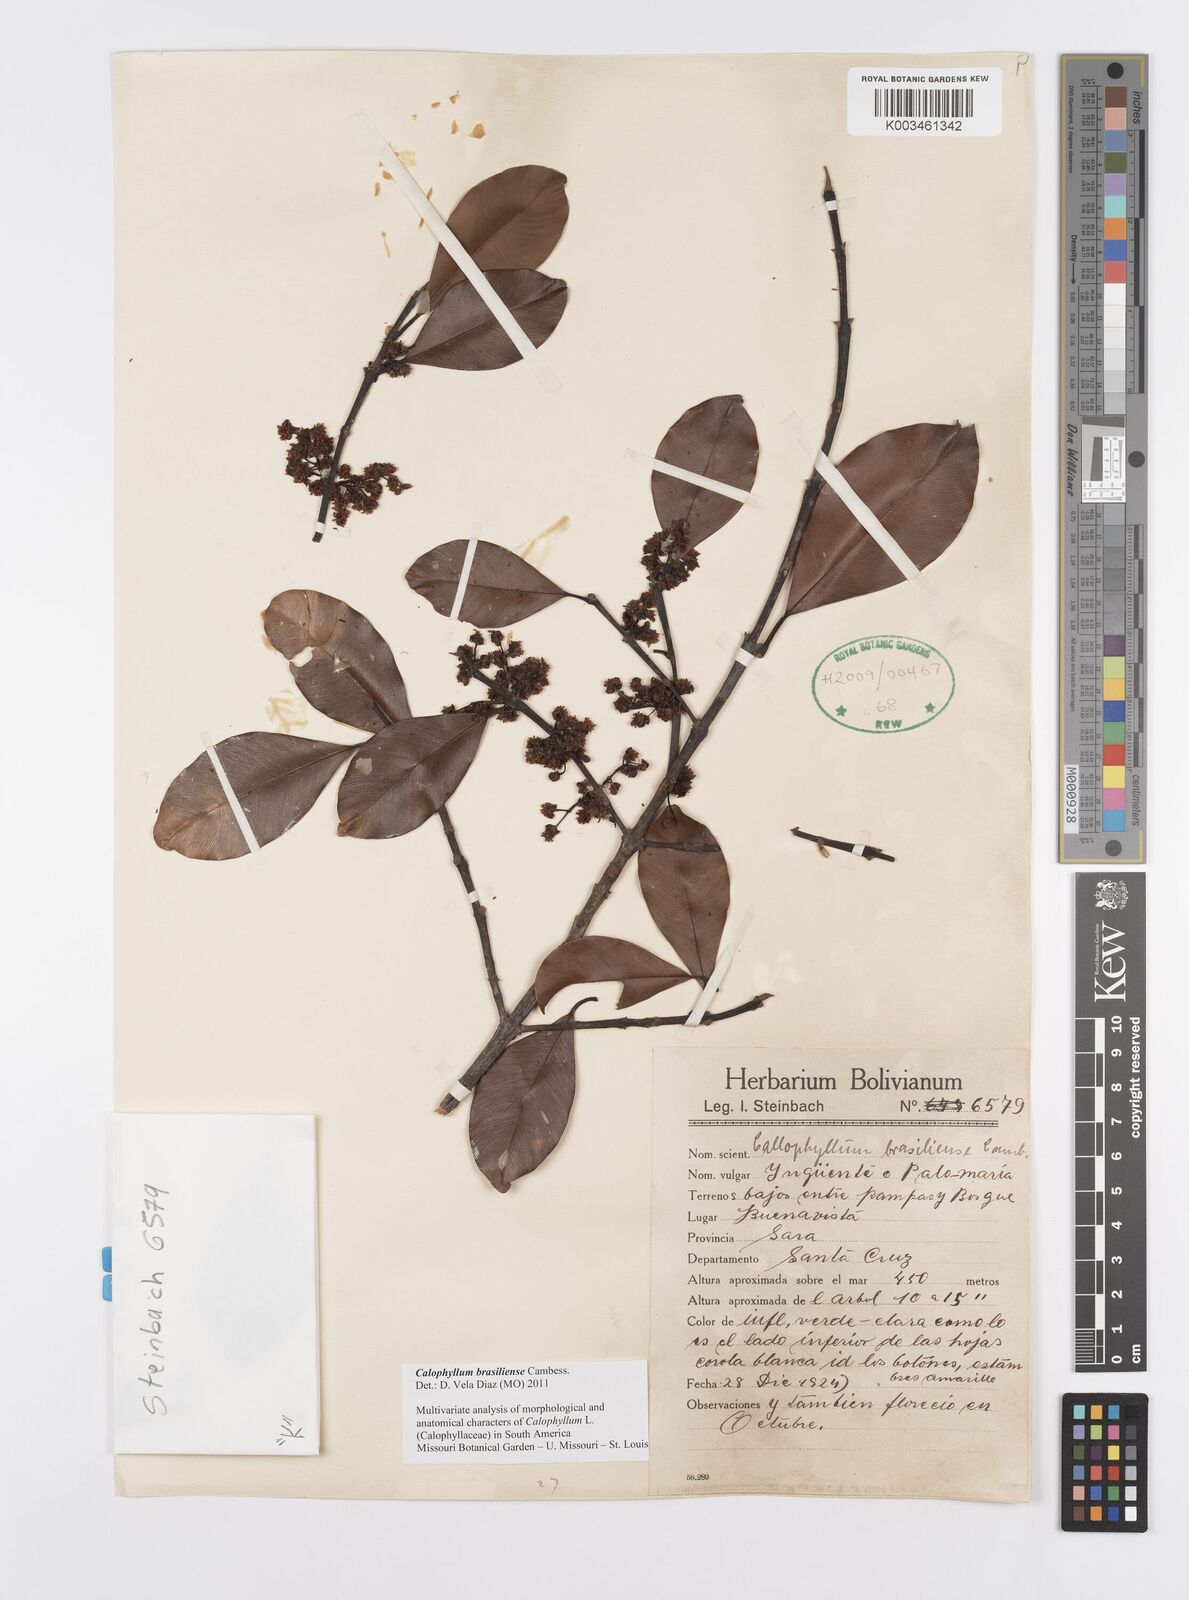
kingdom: Plantae
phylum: Tracheophyta
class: Magnoliopsida
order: Malpighiales
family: Calophyllaceae
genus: Calophyllum
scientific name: Calophyllum brasiliense
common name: Santa maria
